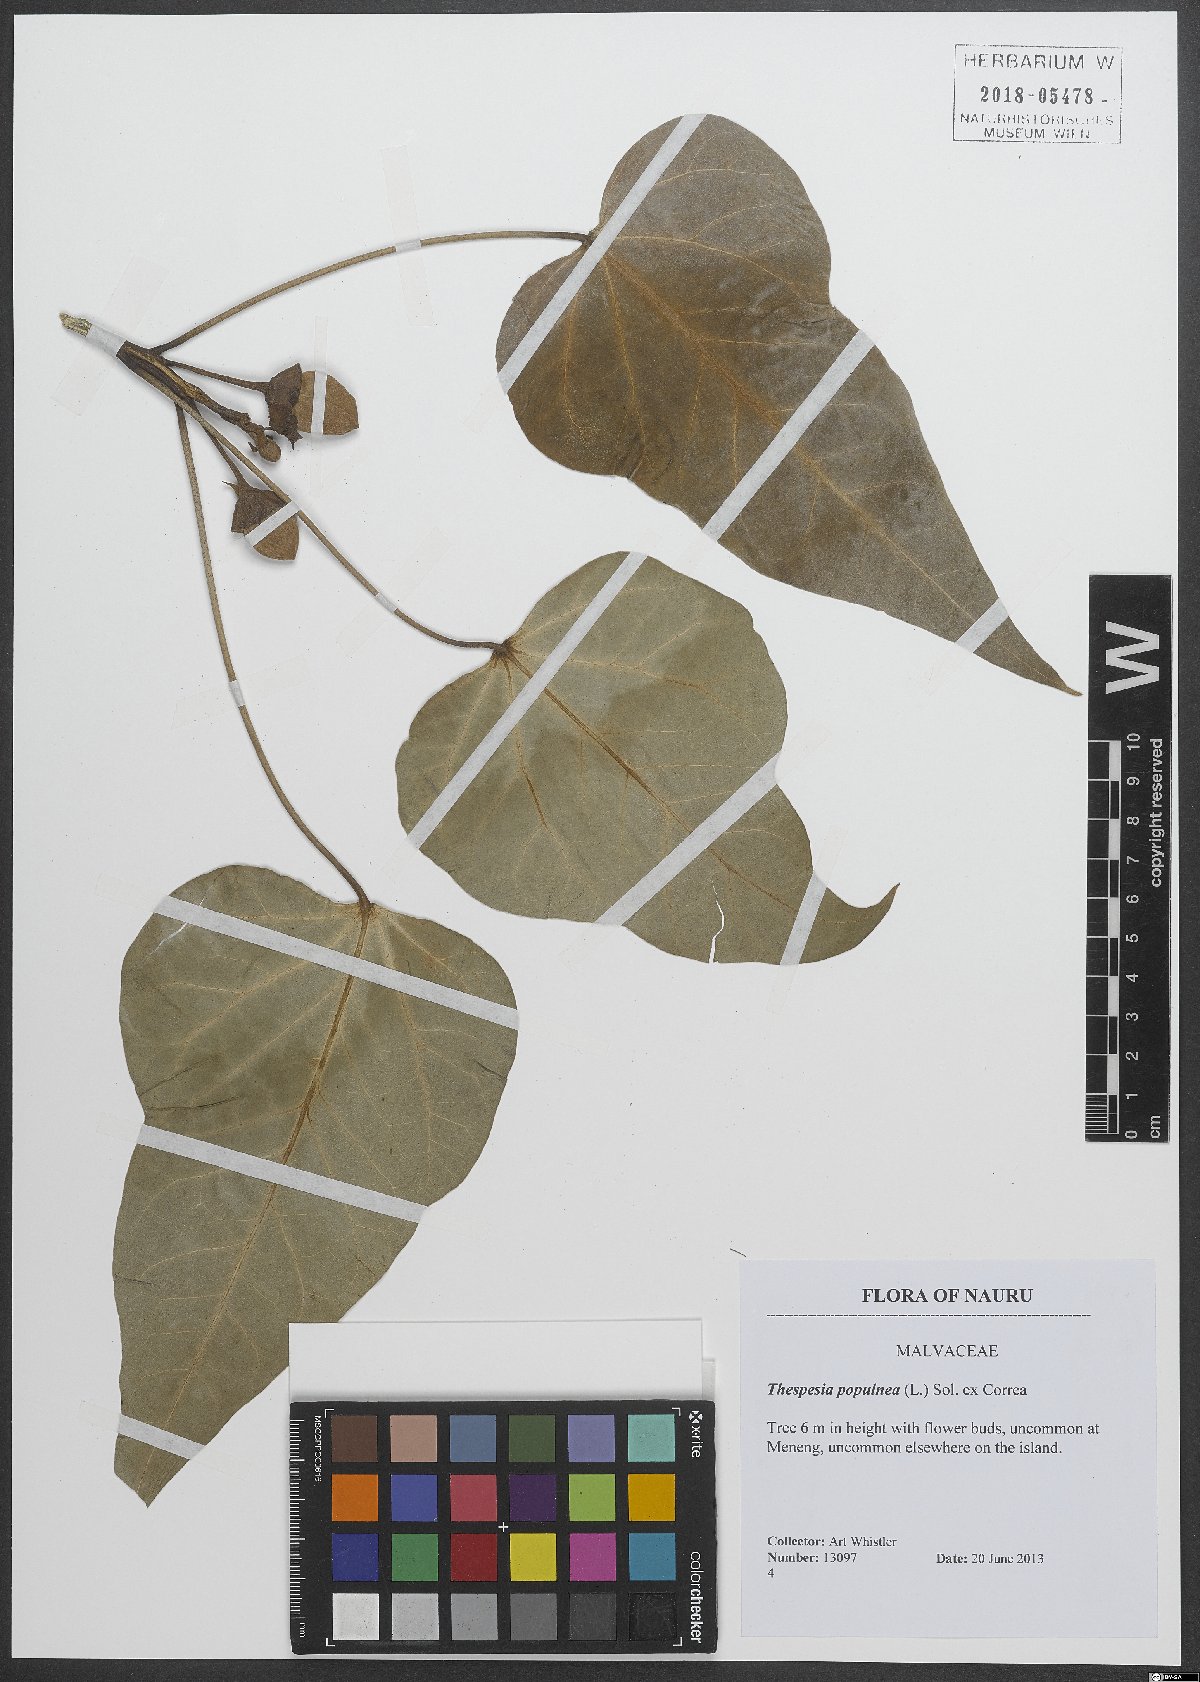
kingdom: Plantae
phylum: Tracheophyta
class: Magnoliopsida
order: Malvales
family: Malvaceae
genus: Thespesia
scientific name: Thespesia populnea
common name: Seaside mahoe
